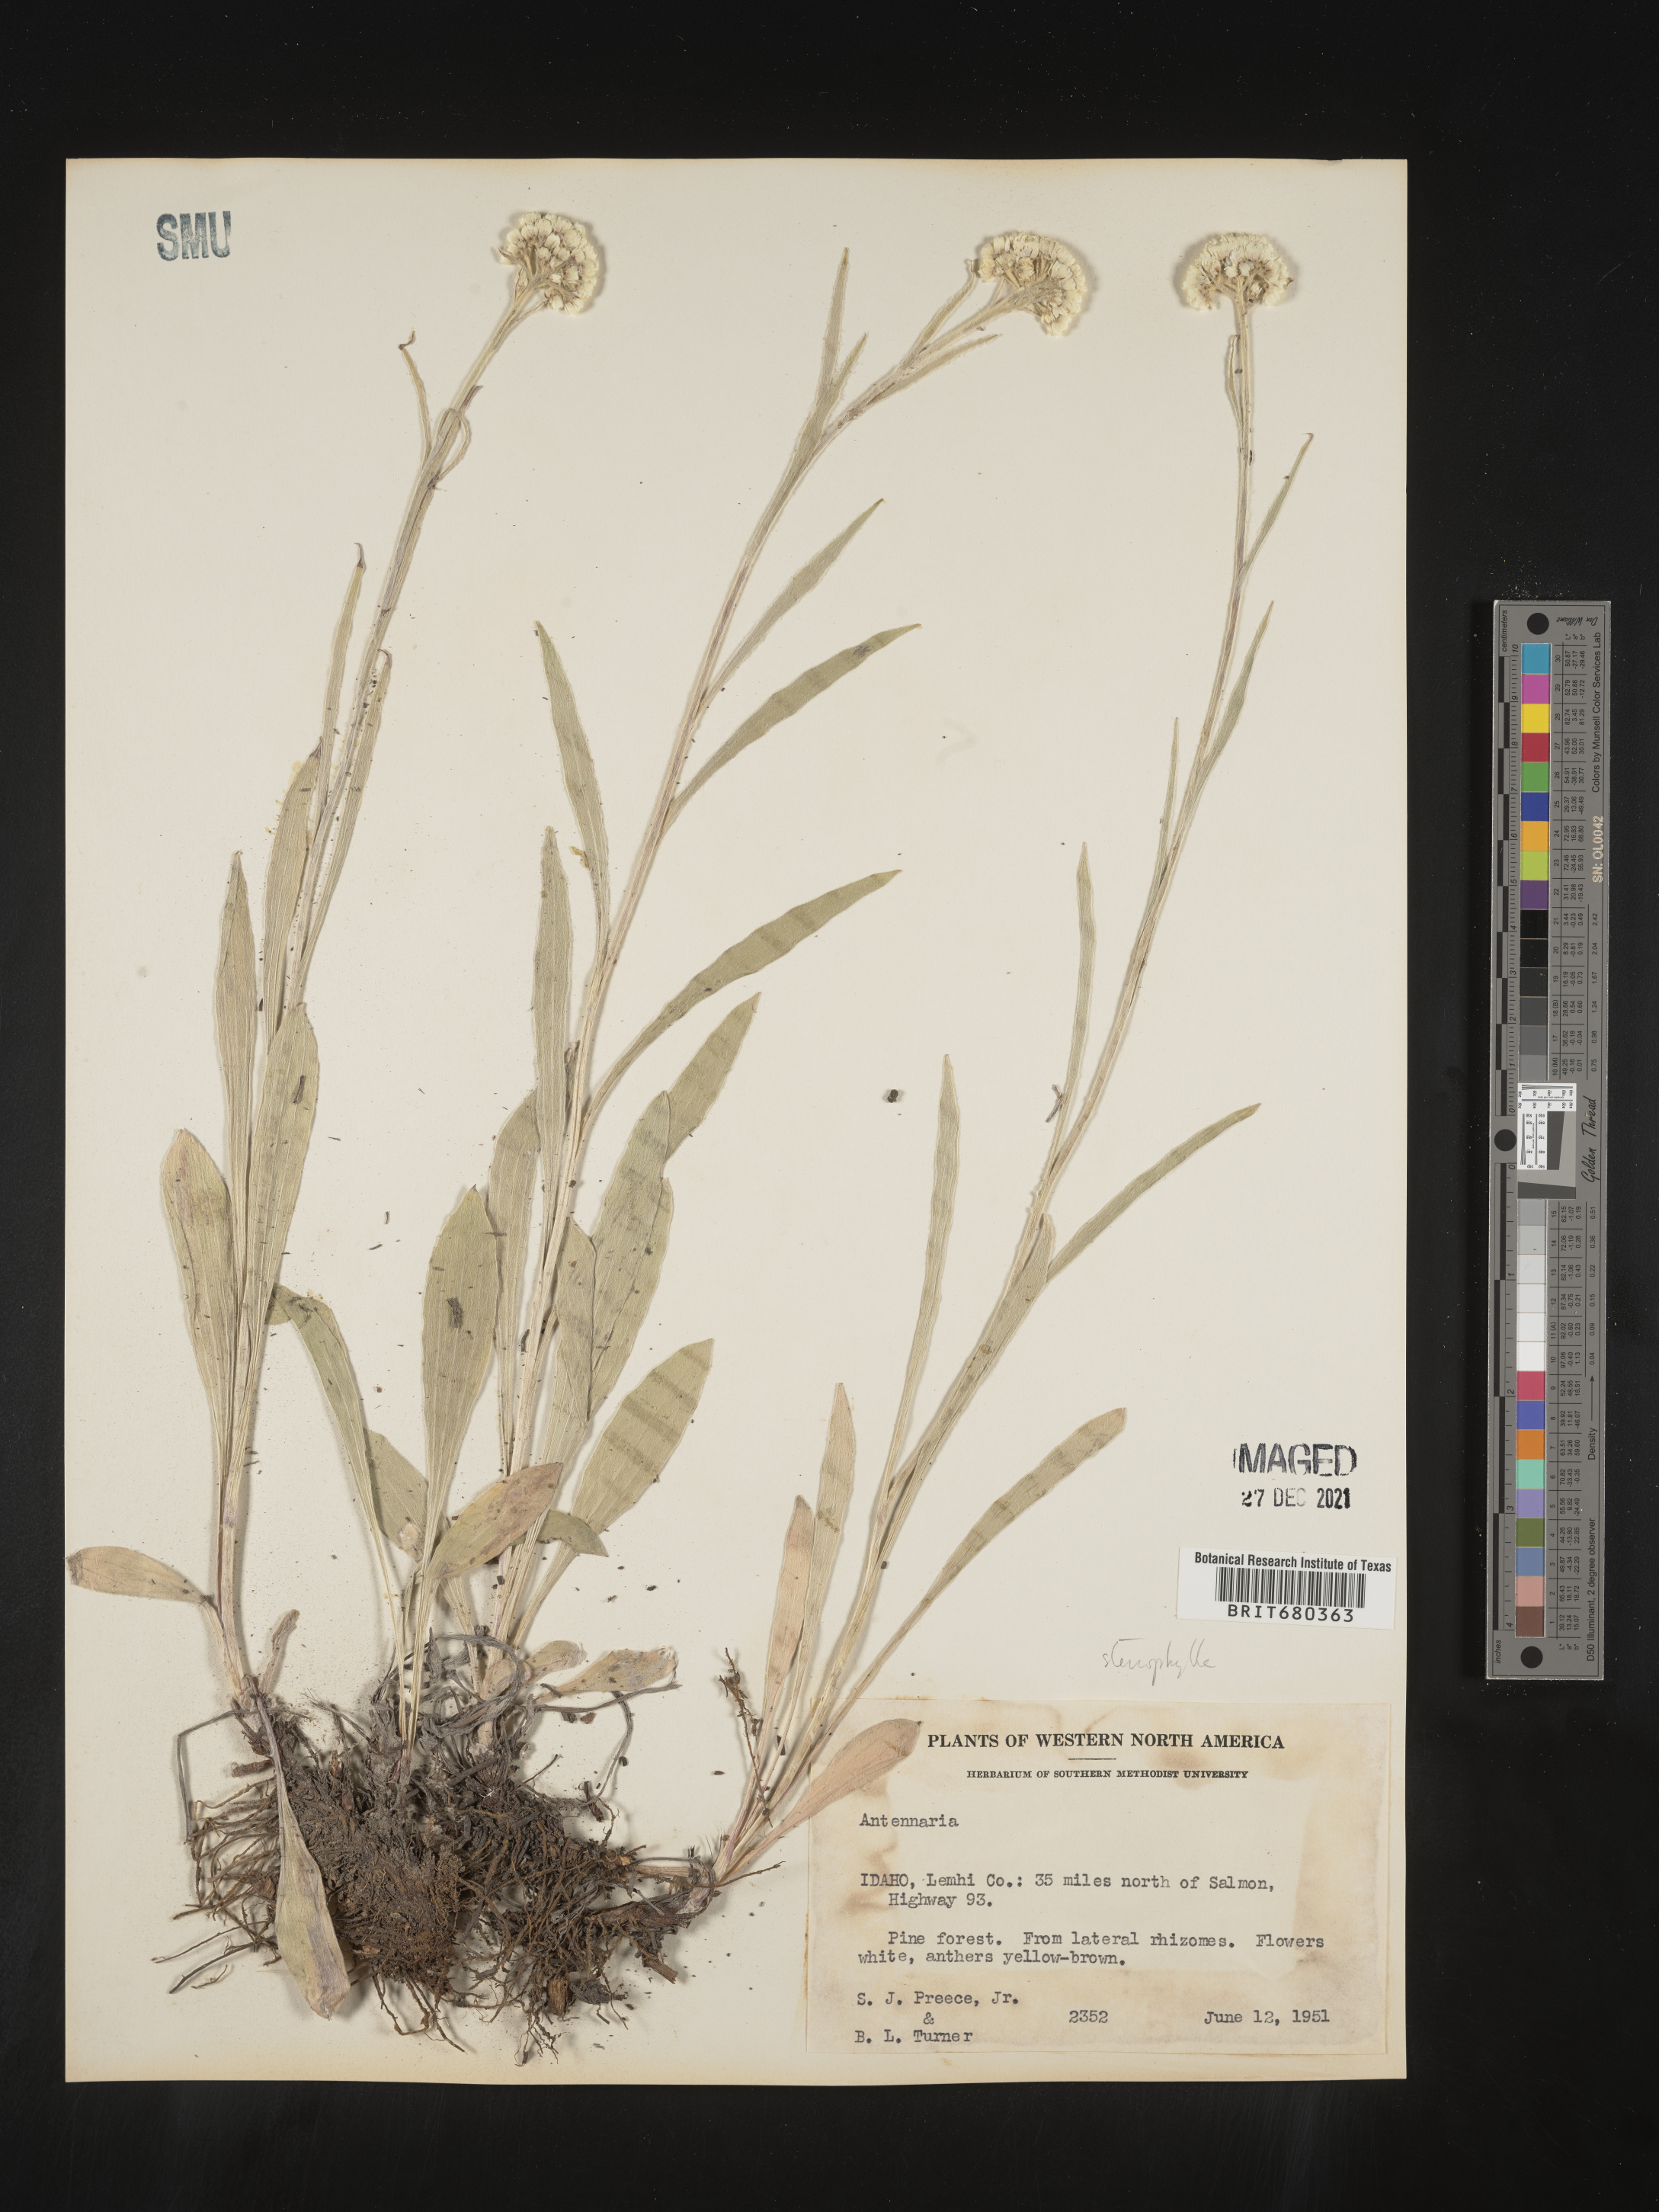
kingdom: Plantae
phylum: Tracheophyta
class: Magnoliopsida
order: Asterales
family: Asteraceae
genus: Antennaria
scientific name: Antennaria
